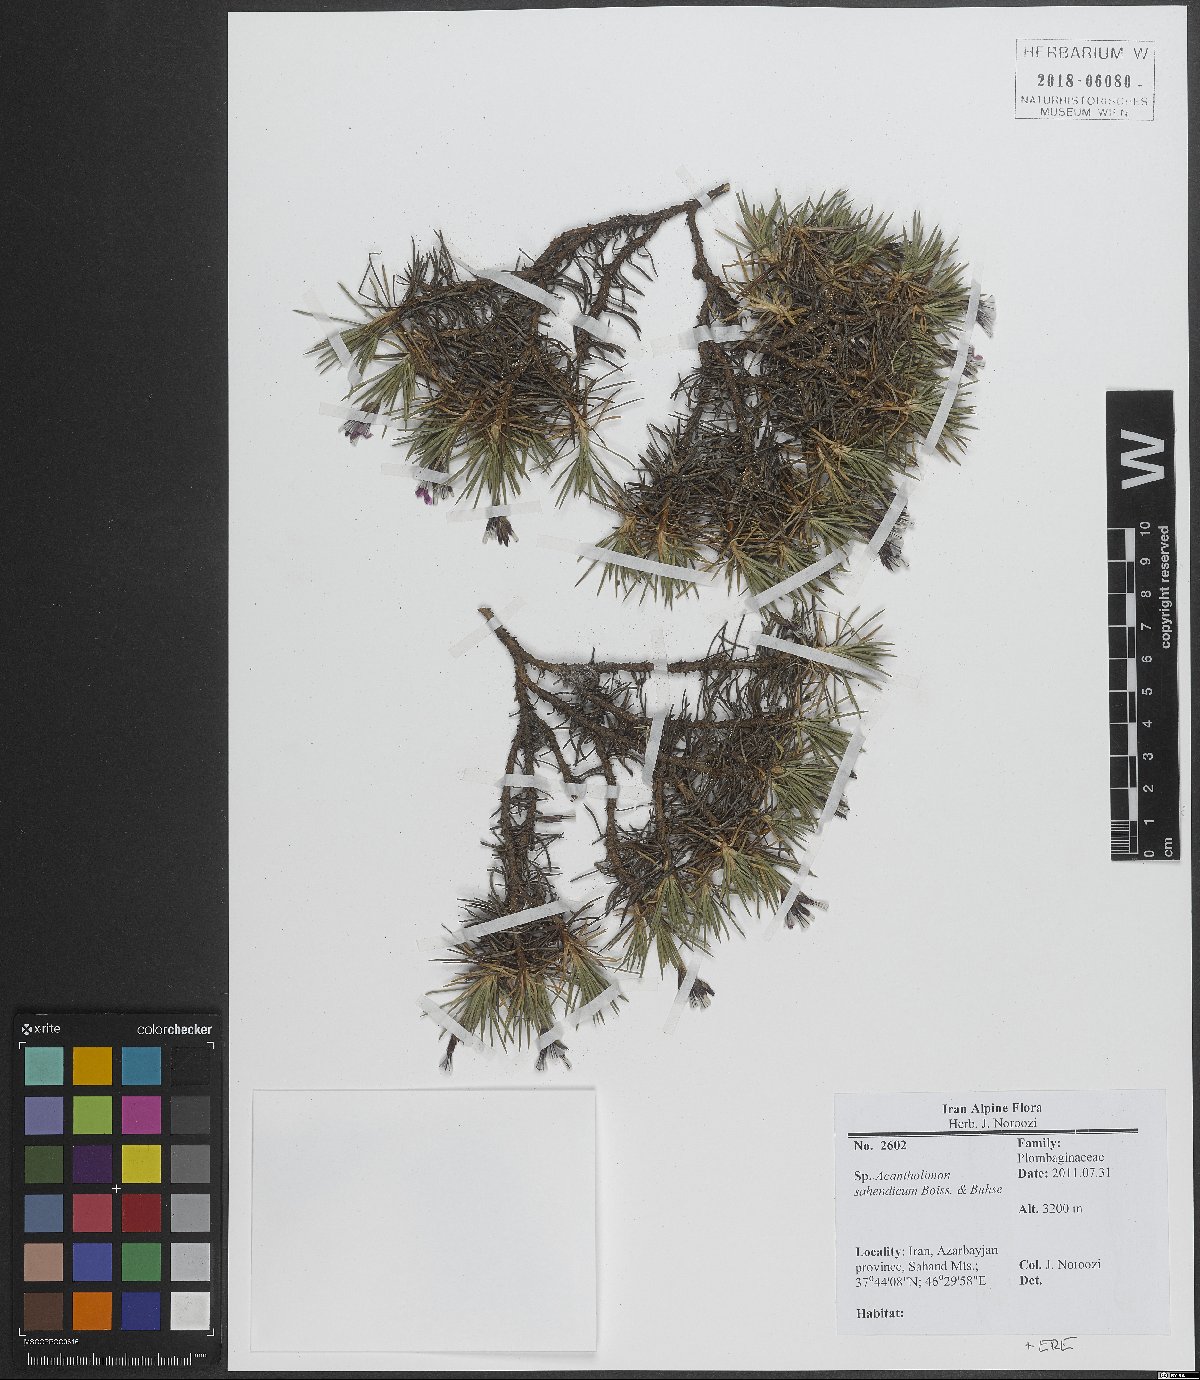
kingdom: Plantae
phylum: Tracheophyta
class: Magnoliopsida
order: Caryophyllales
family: Plumbaginaceae
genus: Acantholimon
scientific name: Acantholimon sahendicum
